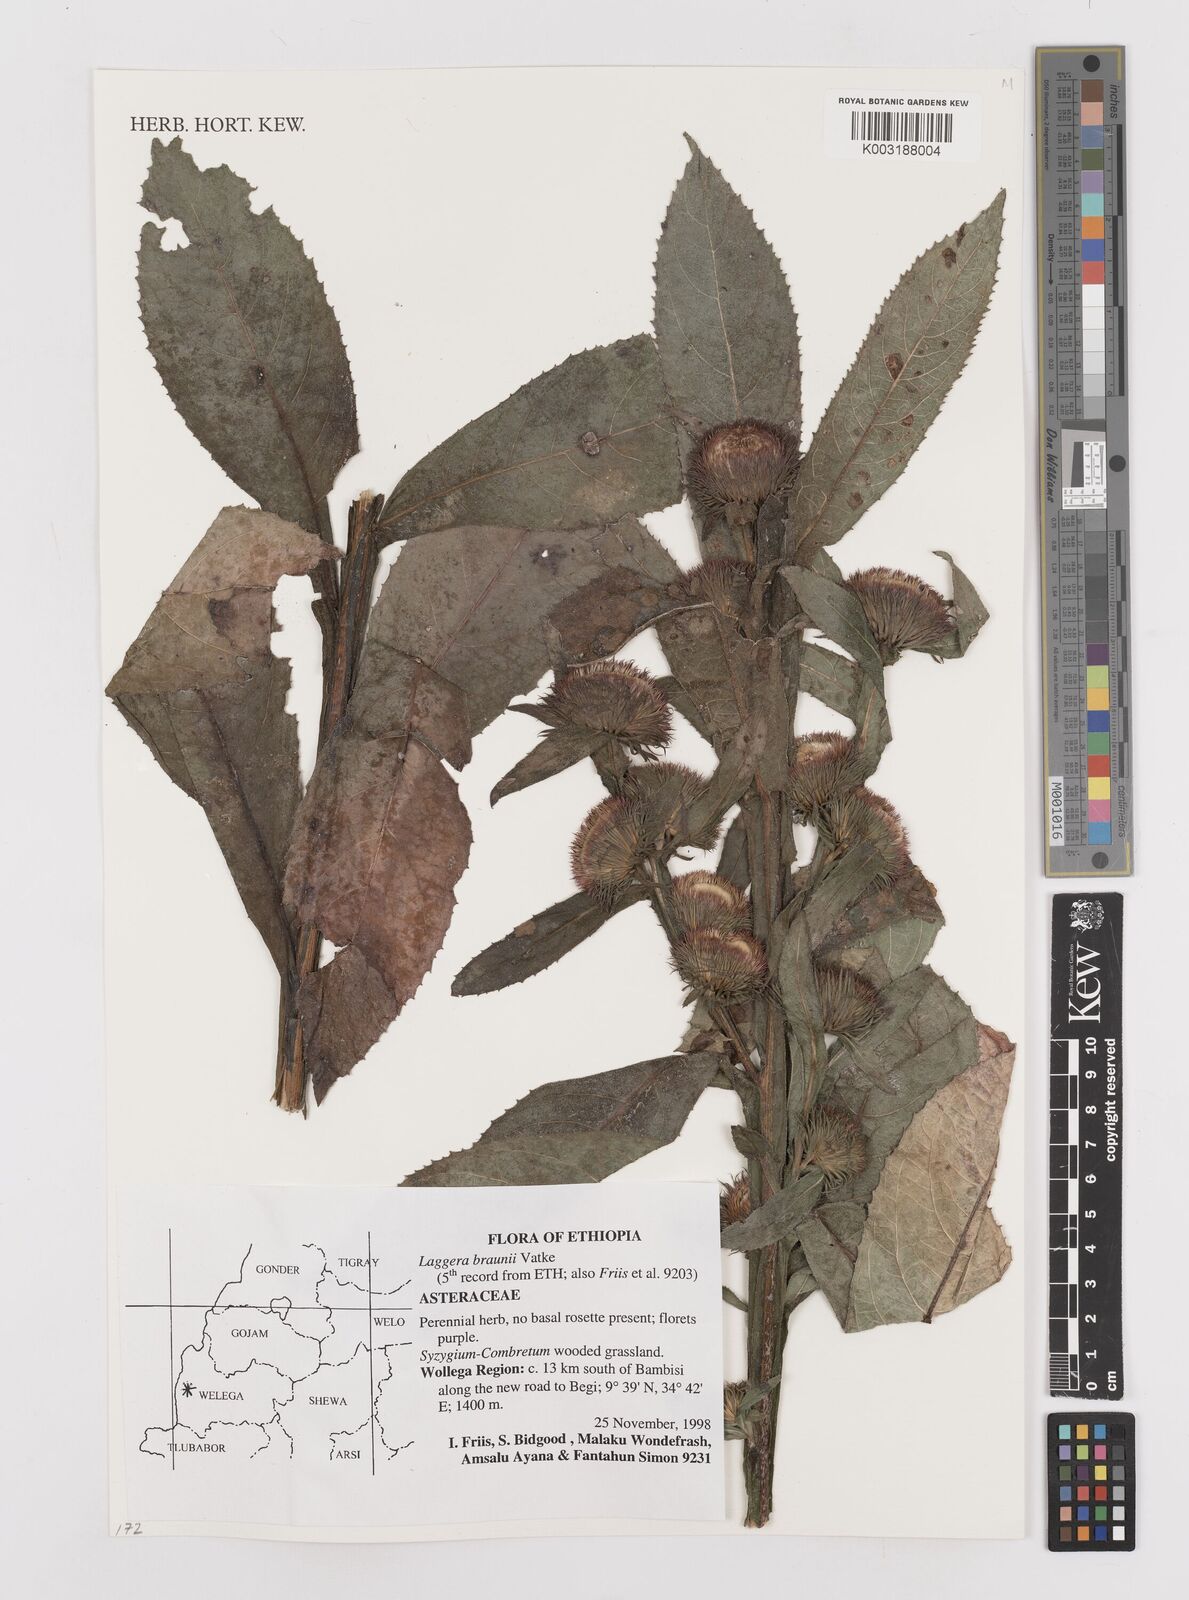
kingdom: Plantae
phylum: Tracheophyta
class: Magnoliopsida
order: Asterales
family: Asteraceae
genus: Laggera
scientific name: Laggera braunii
